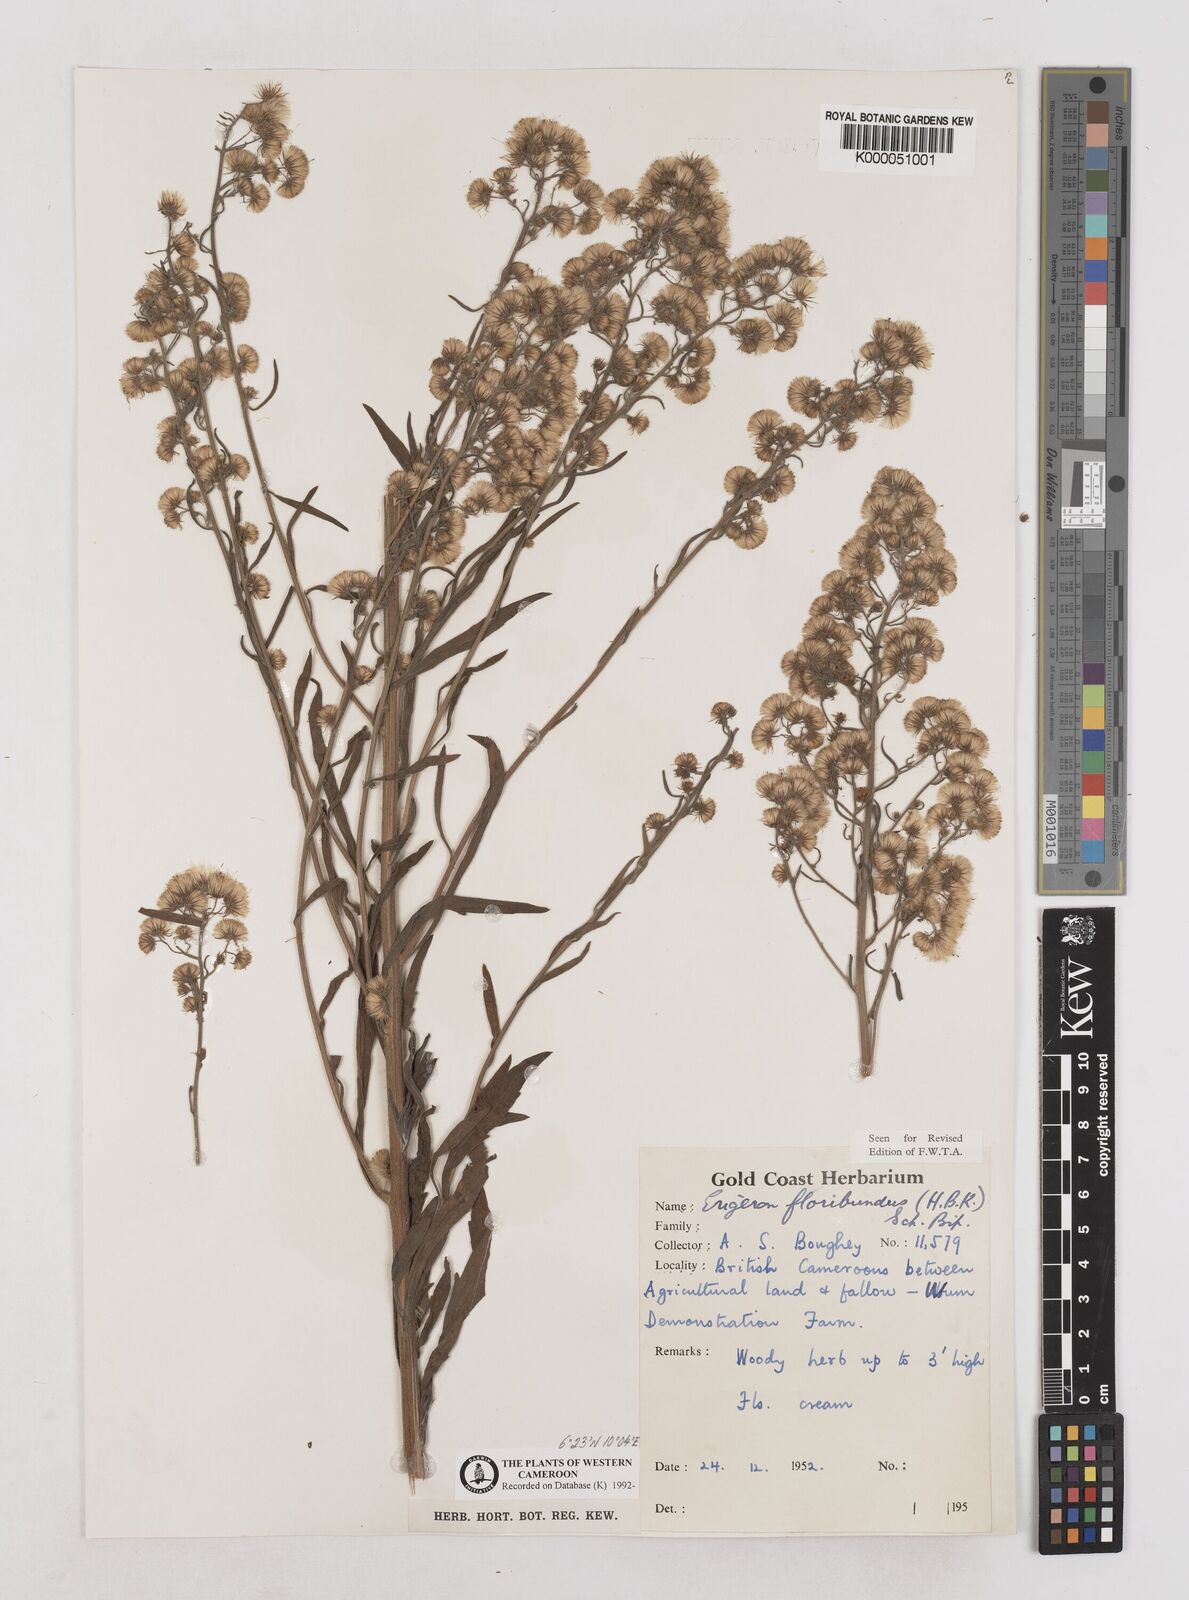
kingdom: Plantae
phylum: Tracheophyta
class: Magnoliopsida
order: Asterales
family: Asteraceae
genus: Erigeron
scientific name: Erigeron bonariensis
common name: Argentine fleabane
